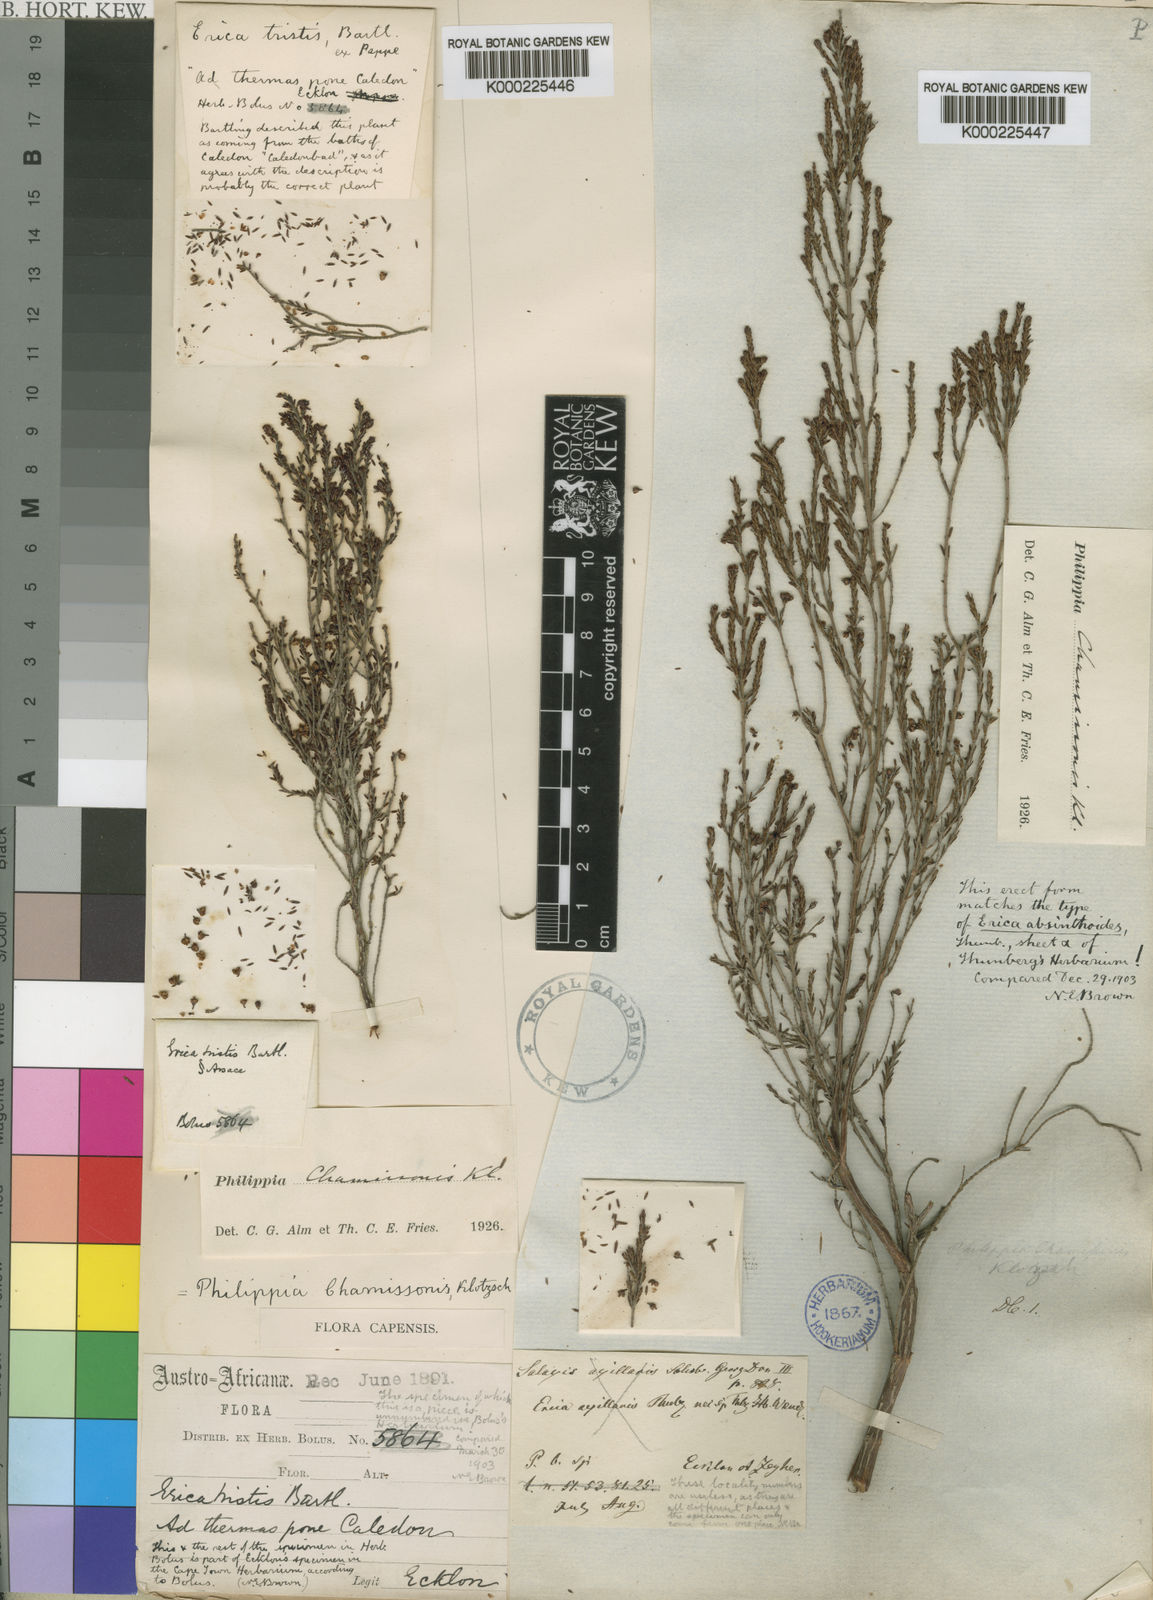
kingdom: Plantae
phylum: Tracheophyta
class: Magnoliopsida
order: Ericales
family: Ericaceae
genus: Erica
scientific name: Erica tristis
